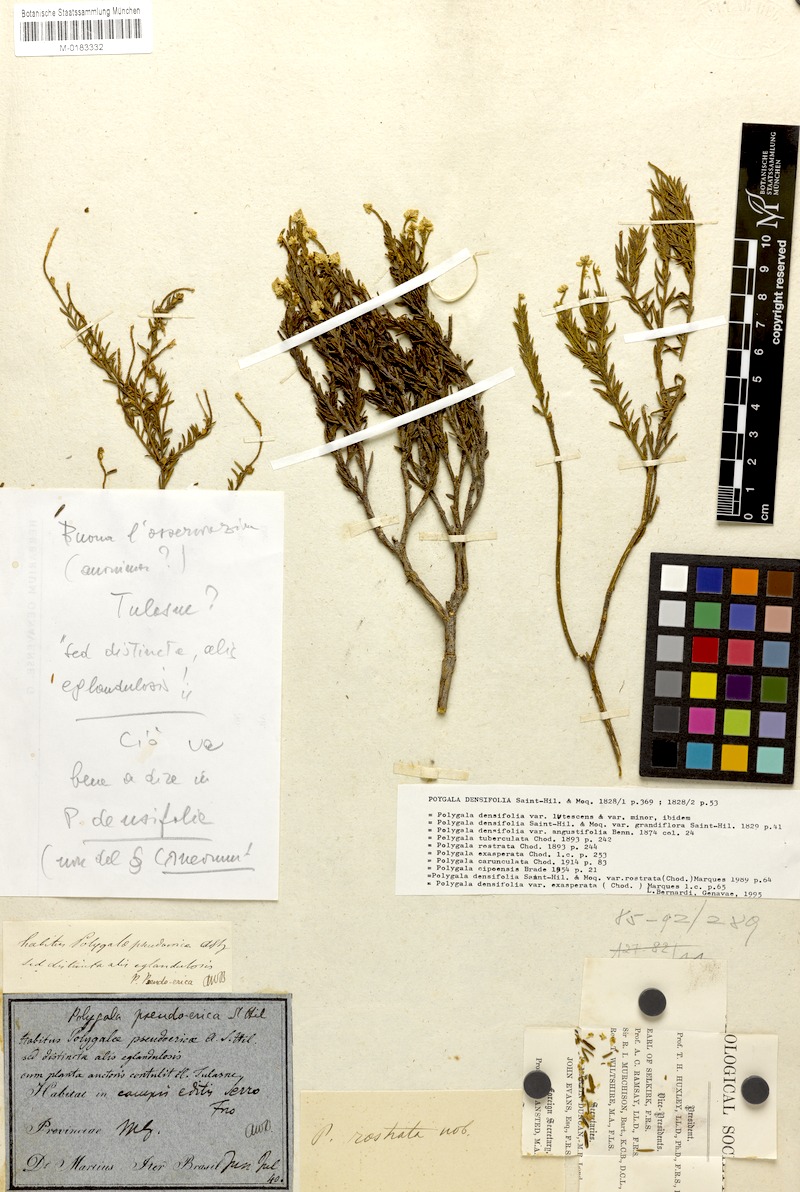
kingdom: Plantae
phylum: Tracheophyta
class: Magnoliopsida
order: Fabales
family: Polygalaceae
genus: Polygala
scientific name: Polygala rostrata
